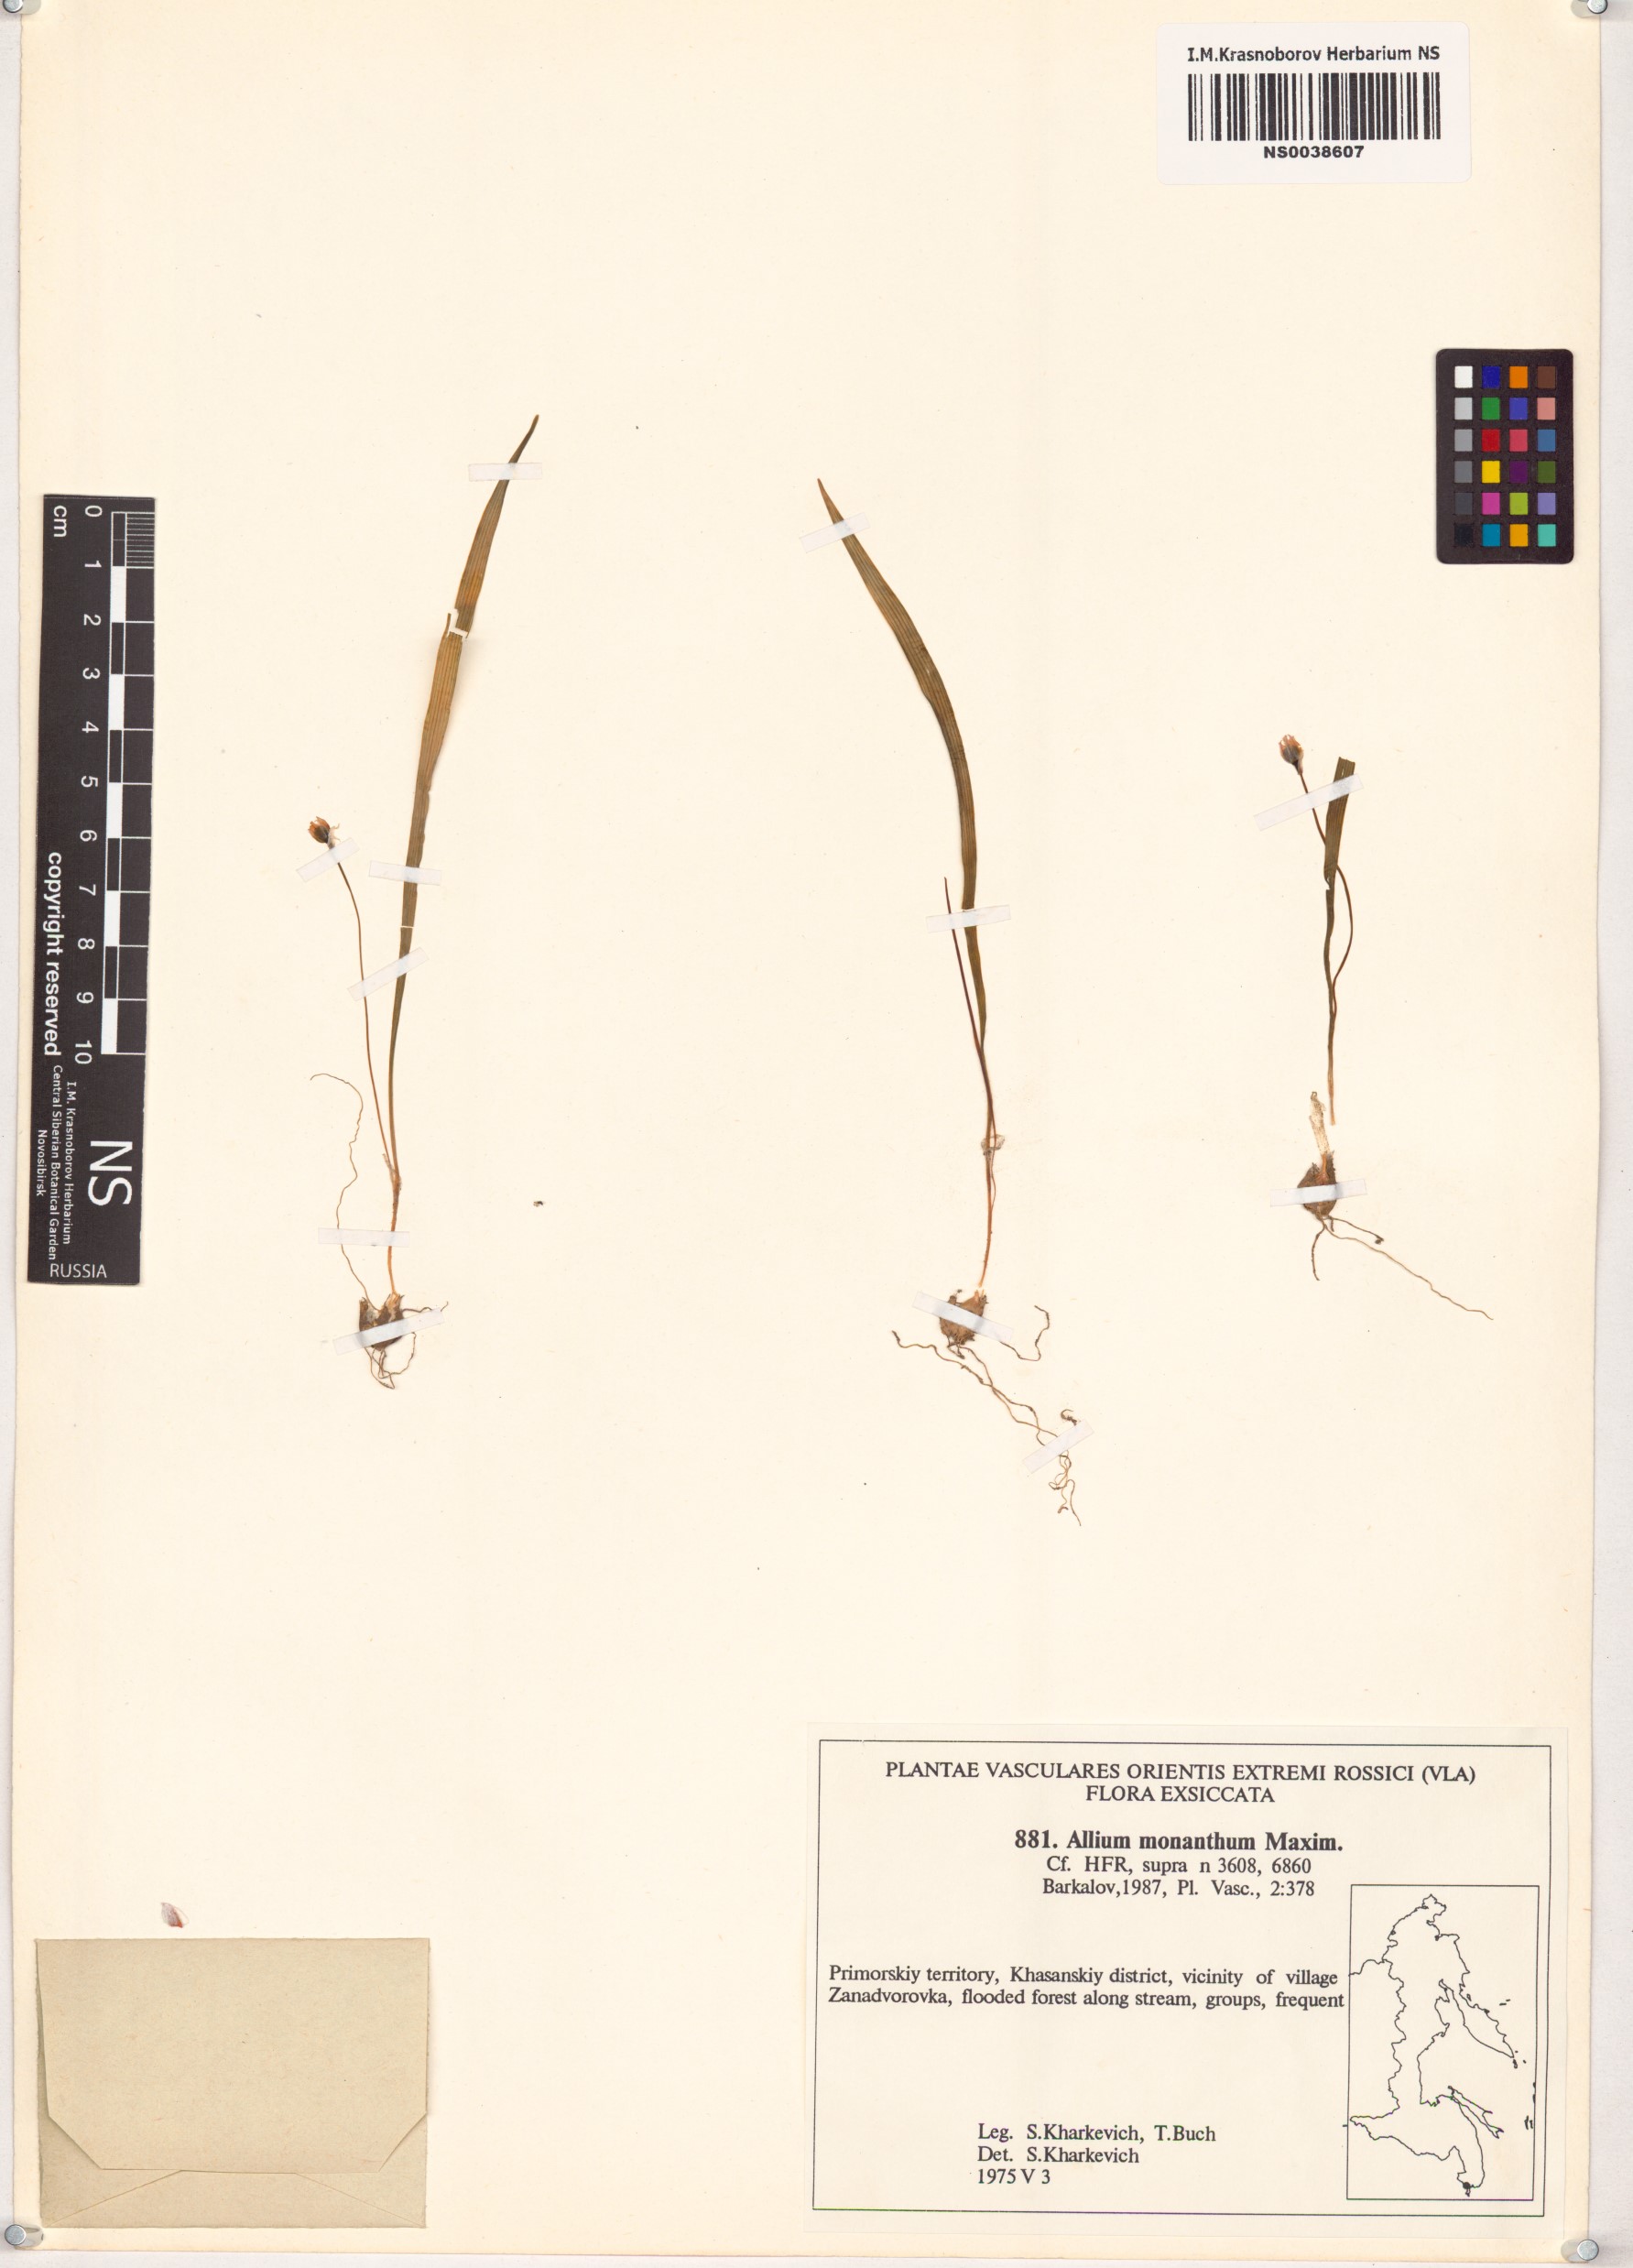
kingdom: Plantae
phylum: Tracheophyta
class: Liliopsida
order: Asparagales
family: Amaryllidaceae
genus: Allium
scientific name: Allium monanthum
